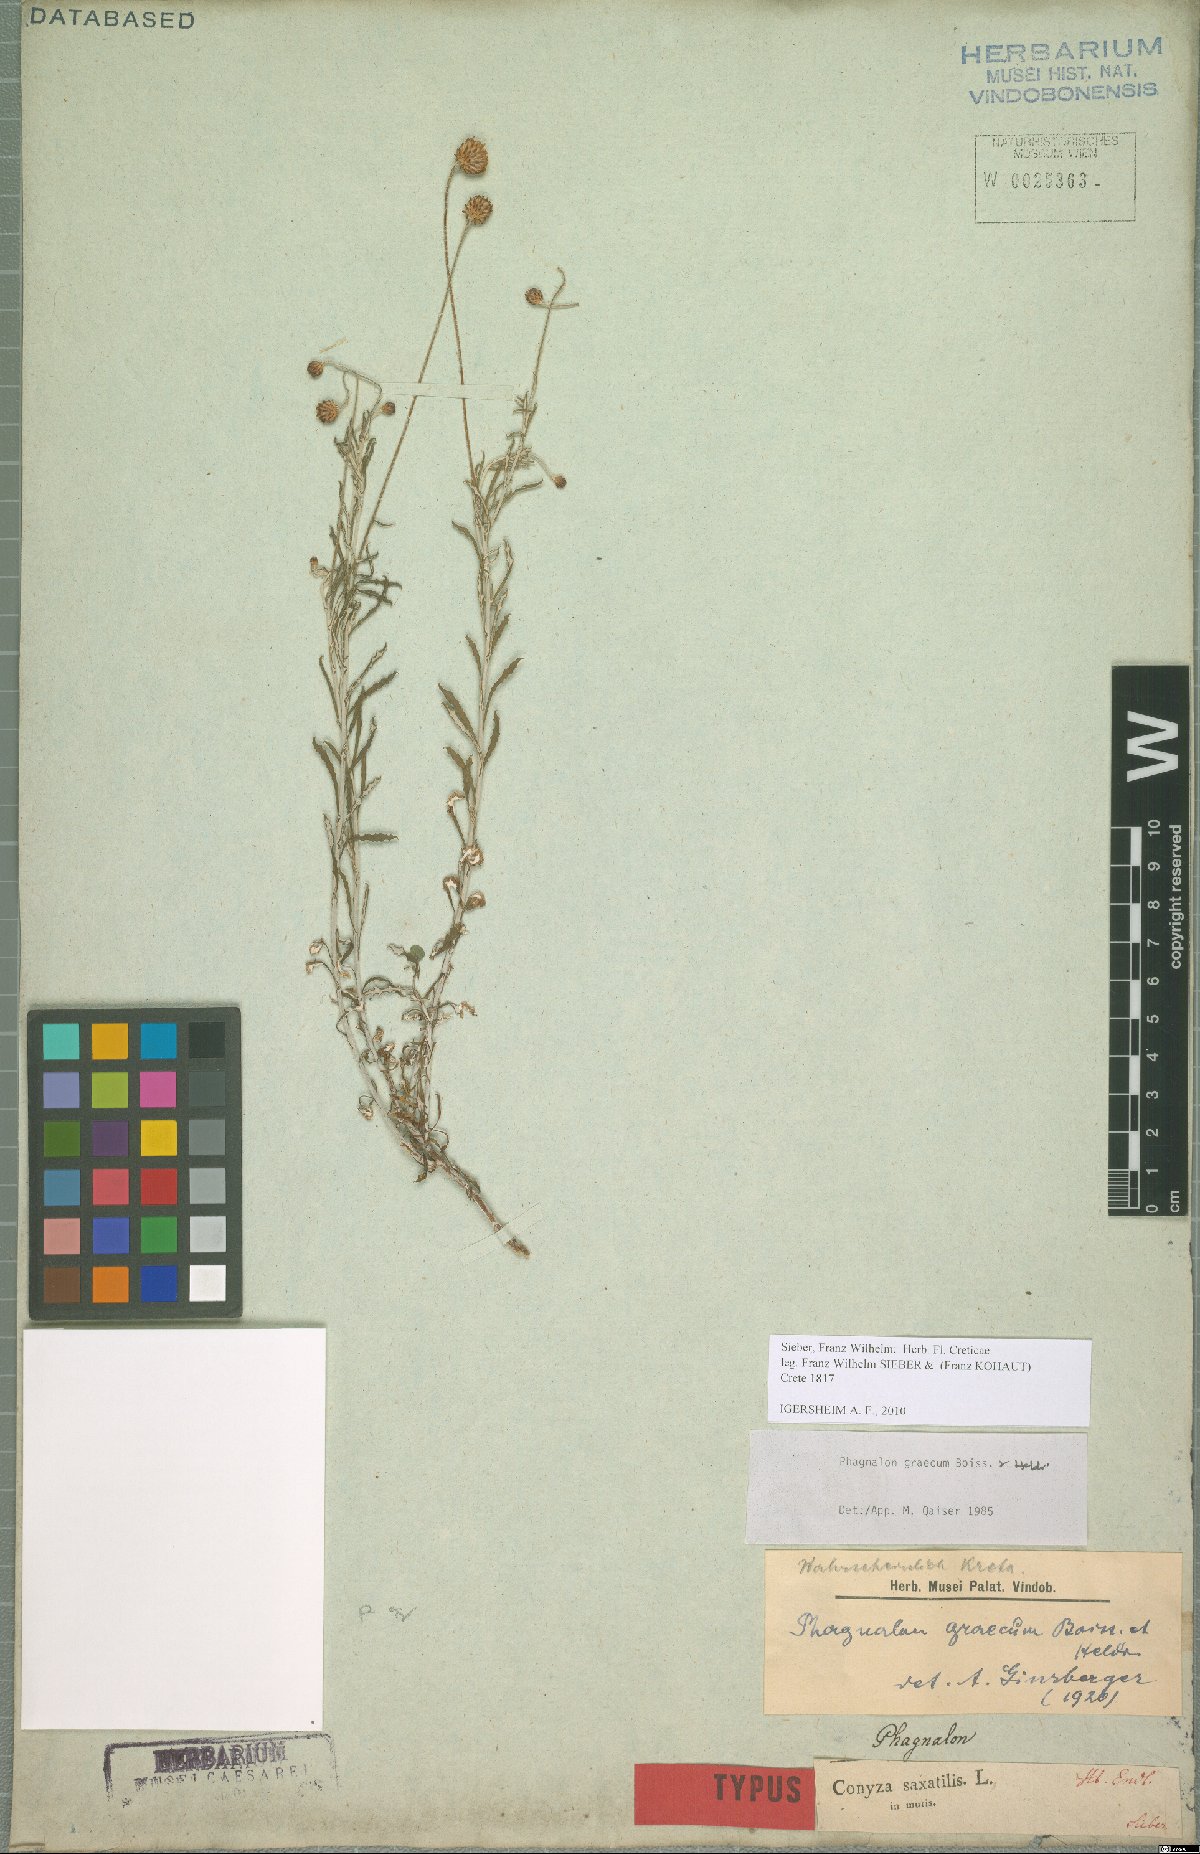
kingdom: Plantae
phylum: Tracheophyta
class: Magnoliopsida
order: Asterales
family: Asteraceae
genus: Phagnalon
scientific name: Phagnalon graecum
